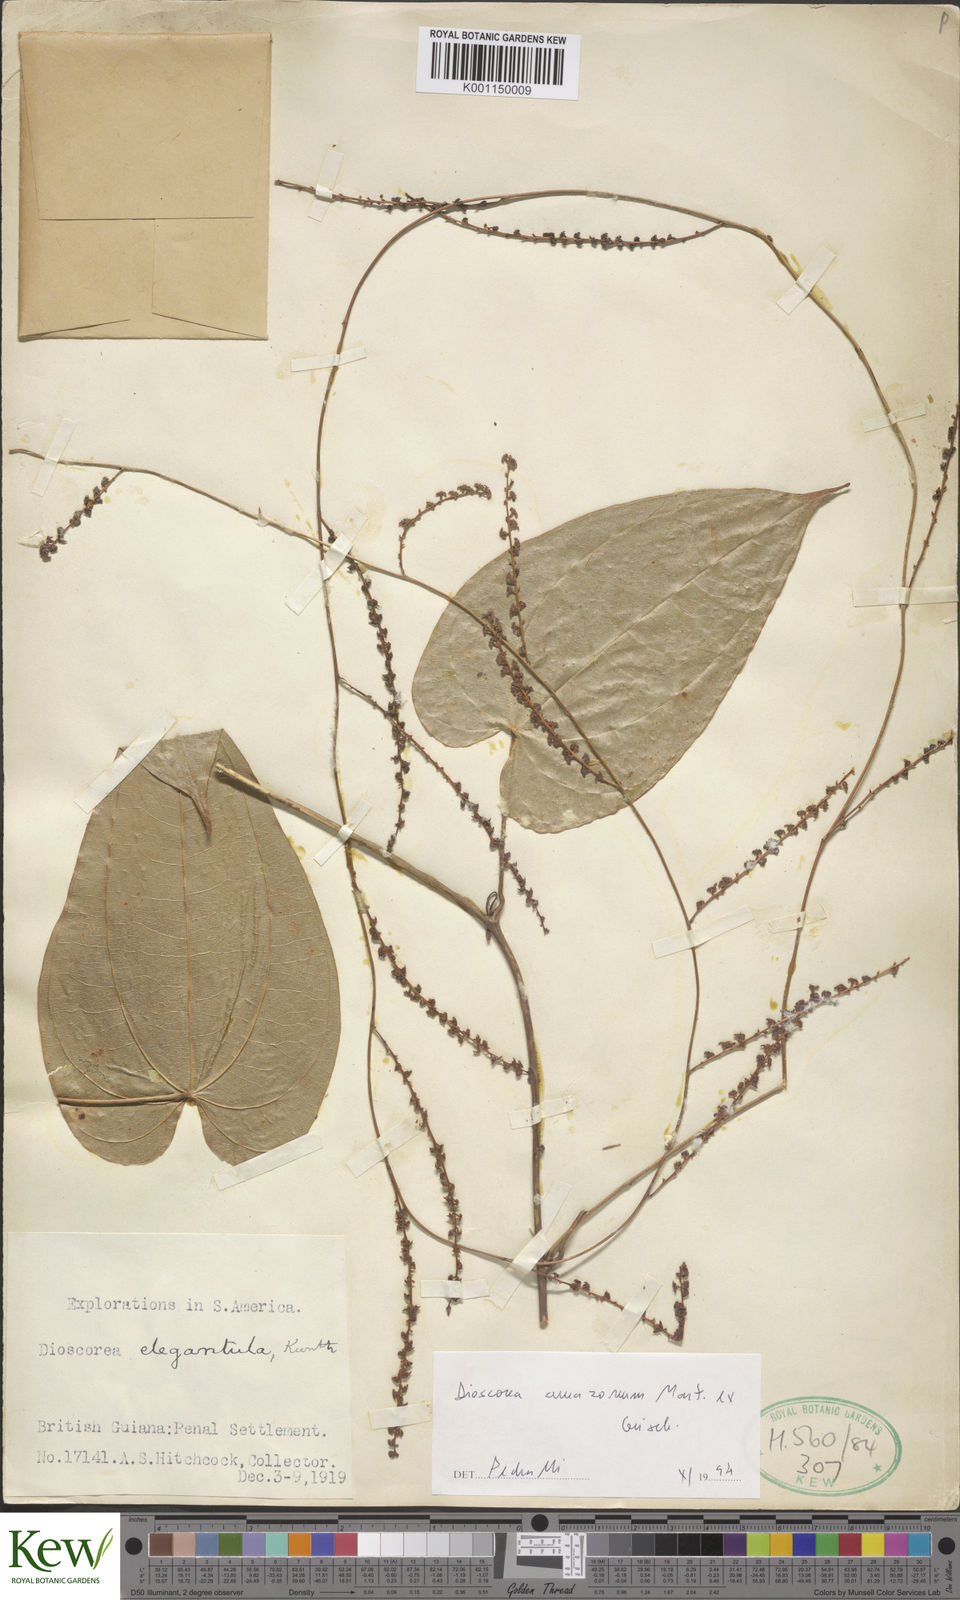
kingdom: Plantae
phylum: Tracheophyta
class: Liliopsida
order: Dioscoreales
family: Dioscoreaceae
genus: Dioscorea
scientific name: Dioscorea amazonum
